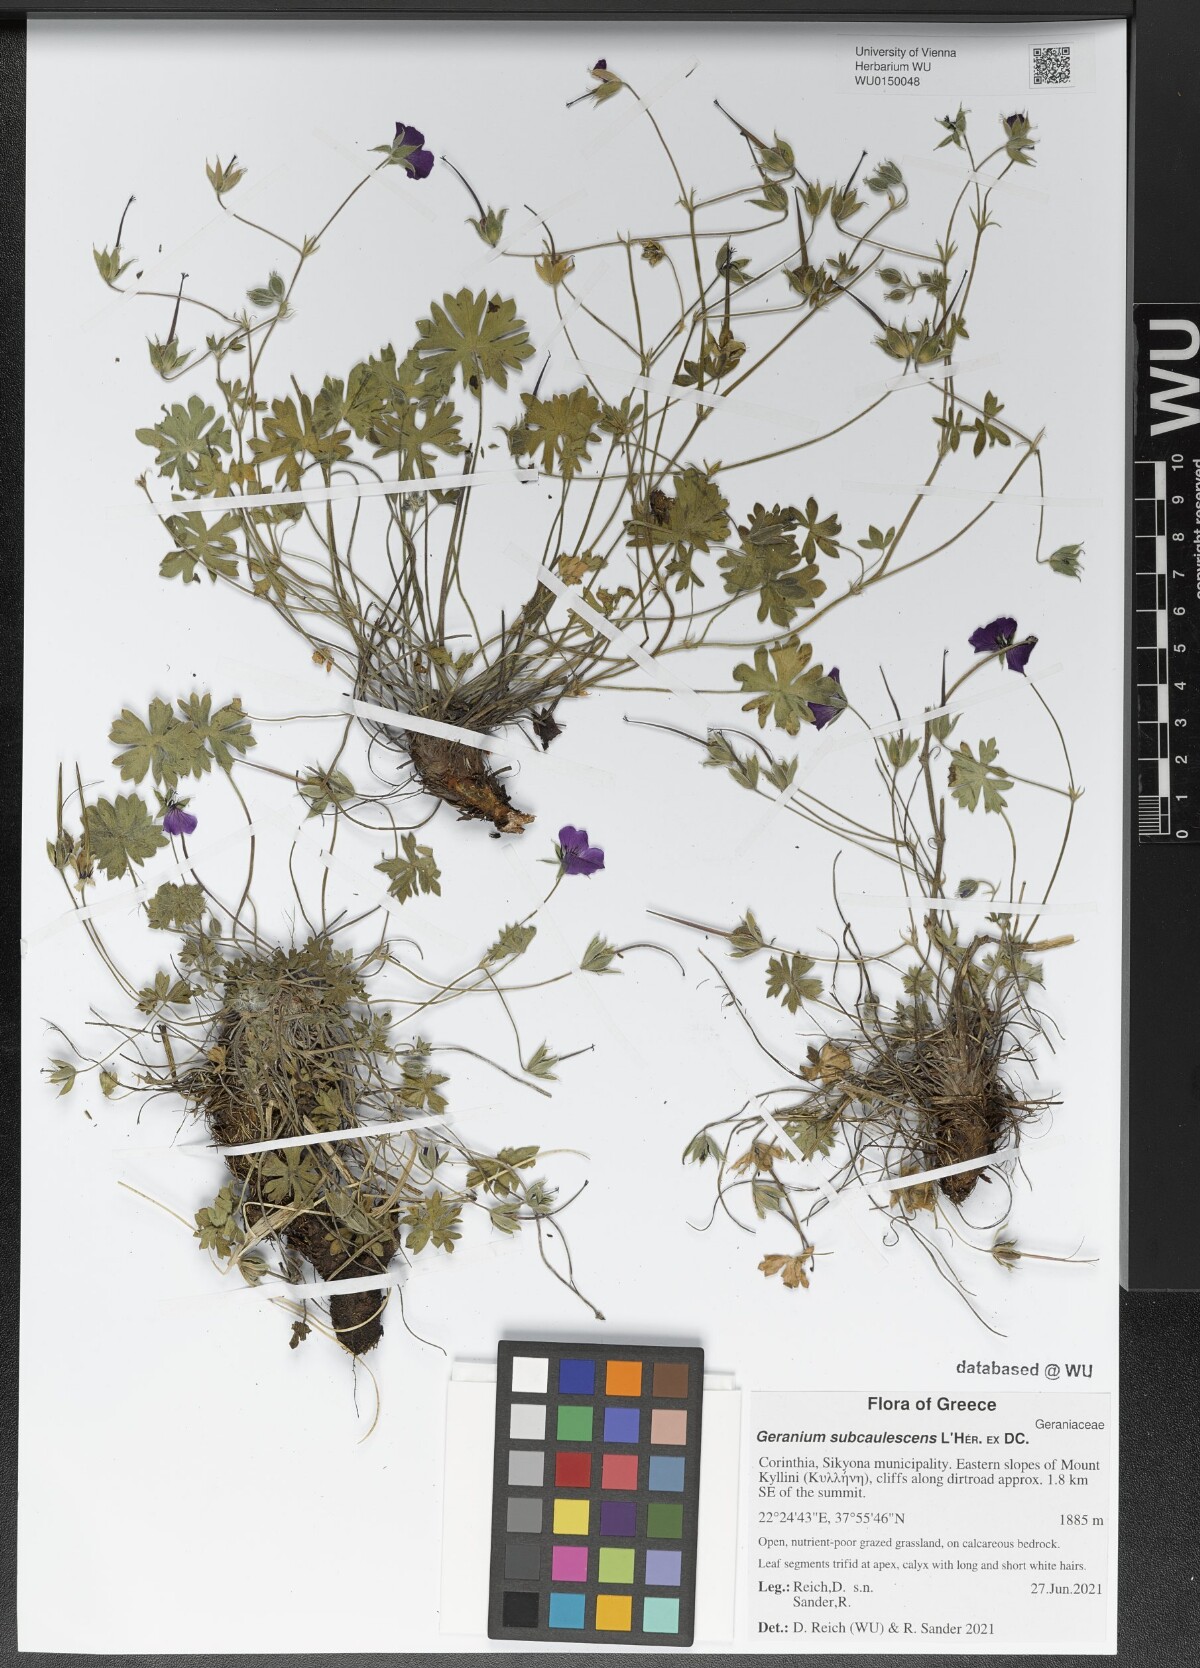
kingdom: Plantae
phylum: Tracheophyta
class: Magnoliopsida
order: Geraniales
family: Geraniaceae
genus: Geranium
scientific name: Geranium subcaulescens
